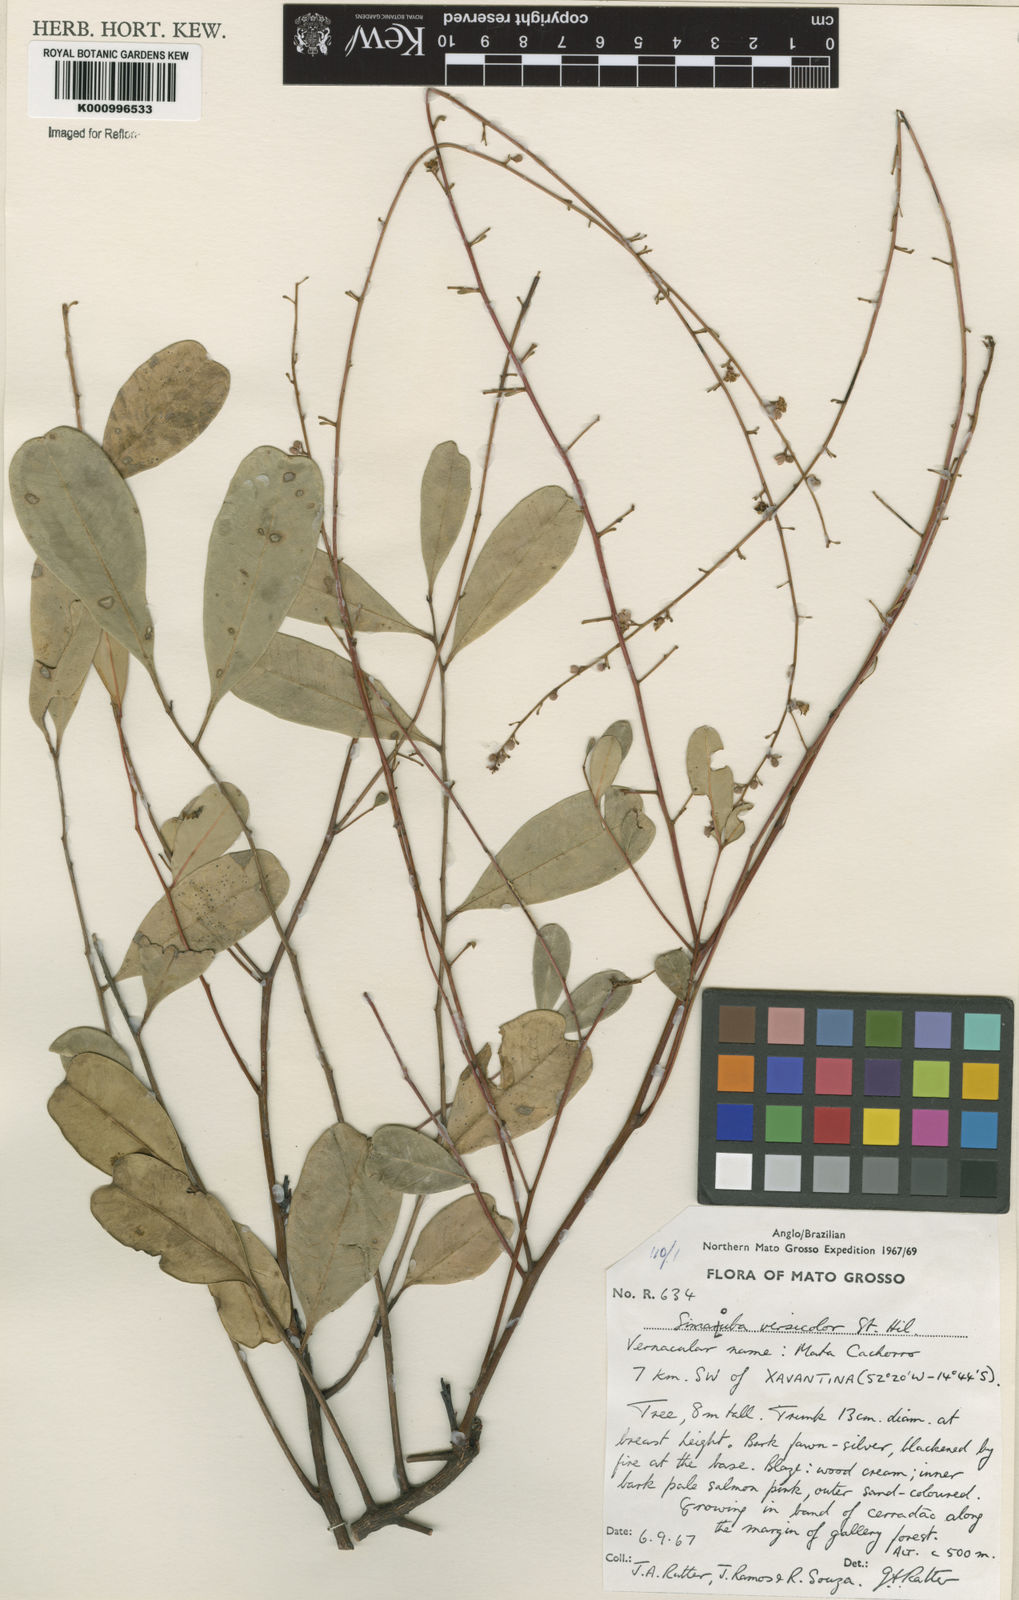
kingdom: Plantae
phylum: Tracheophyta
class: Magnoliopsida
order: Sapindales
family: Simaroubaceae
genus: Simarouba
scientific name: Simarouba versicolor
